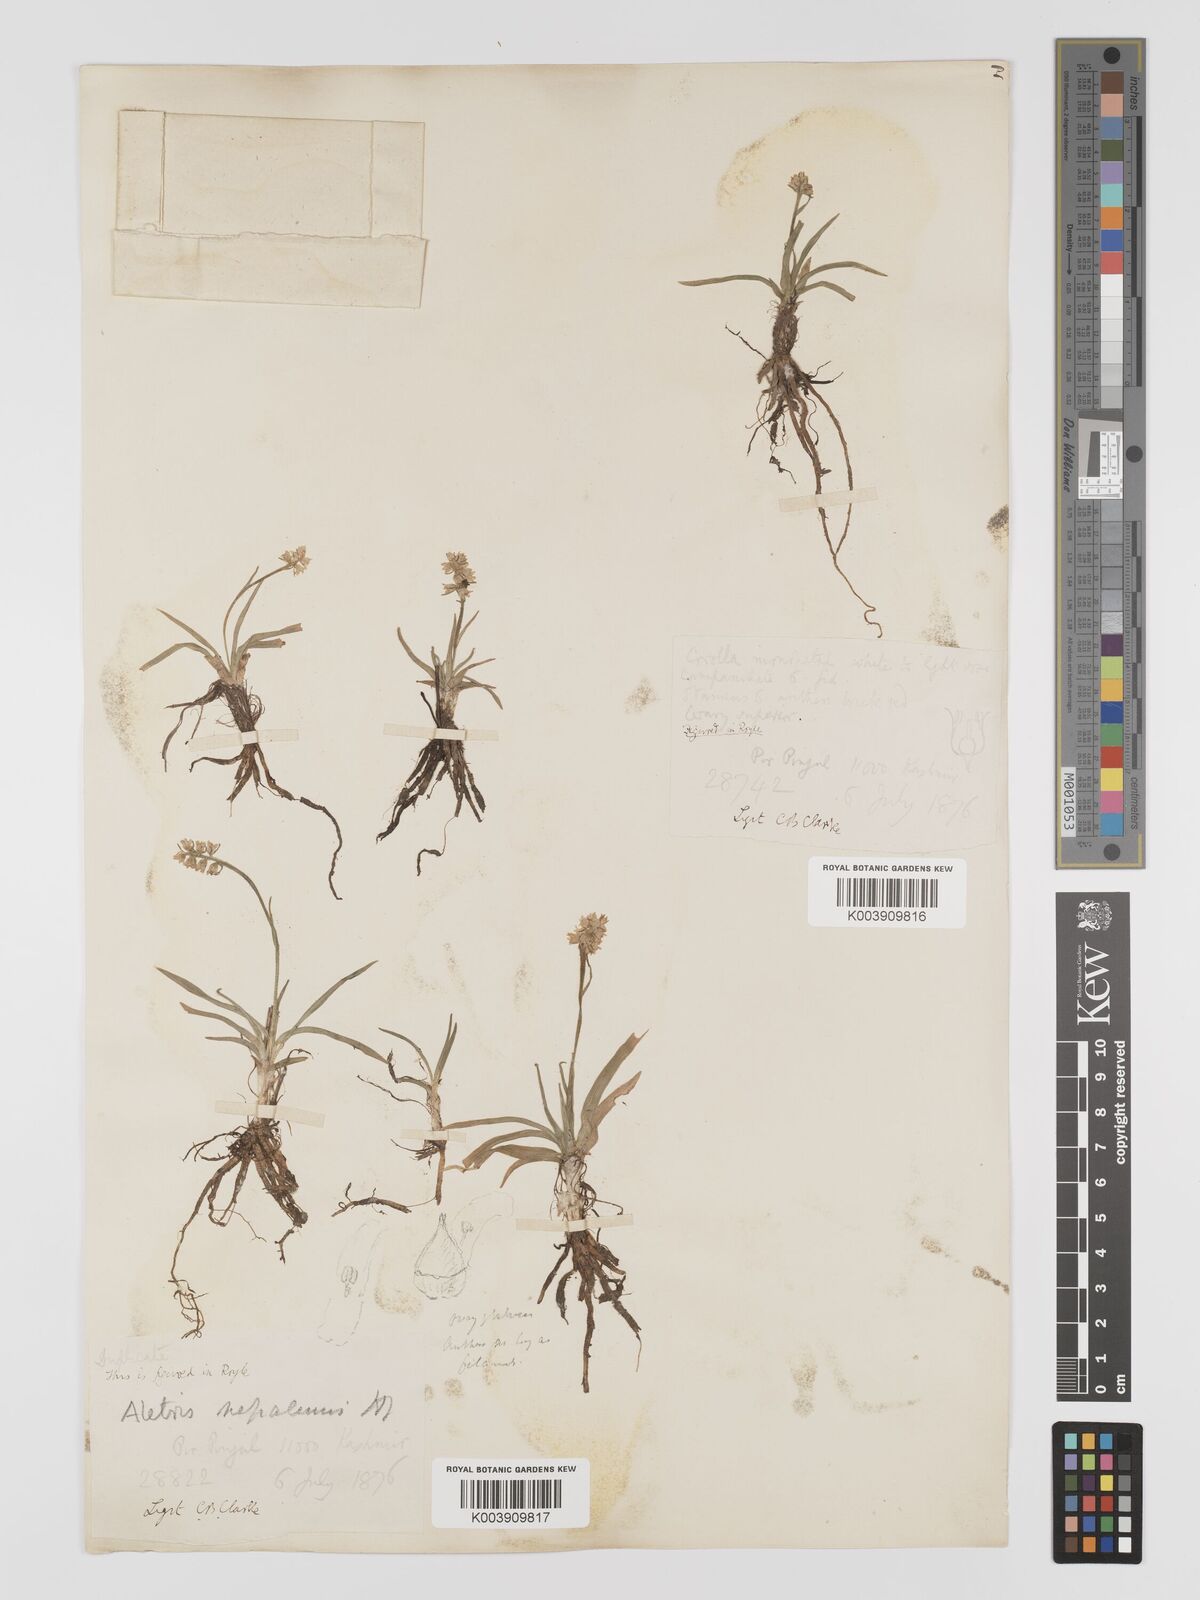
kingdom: Plantae
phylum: Tracheophyta
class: Liliopsida
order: Dioscoreales
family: Nartheciaceae
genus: Aletris
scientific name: Aletris pauciflora
